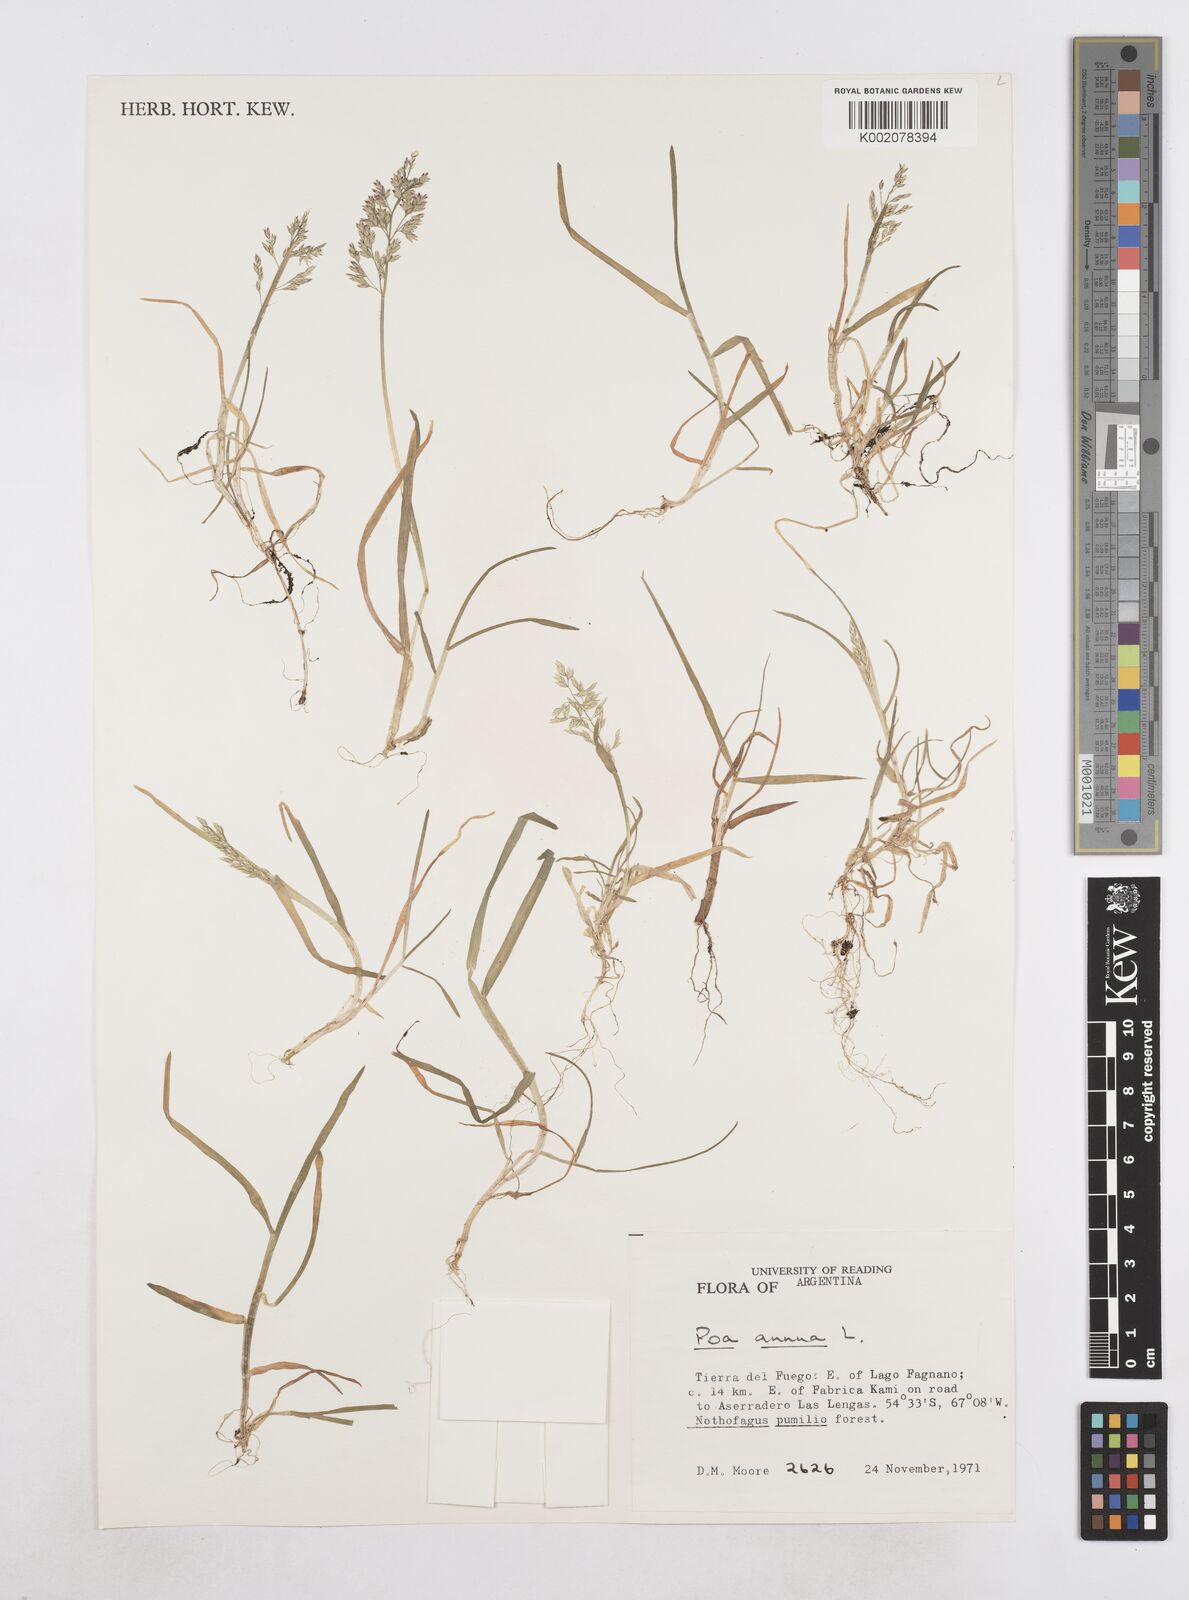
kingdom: Plantae
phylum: Tracheophyta
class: Liliopsida
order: Poales
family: Poaceae
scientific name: Poaceae
